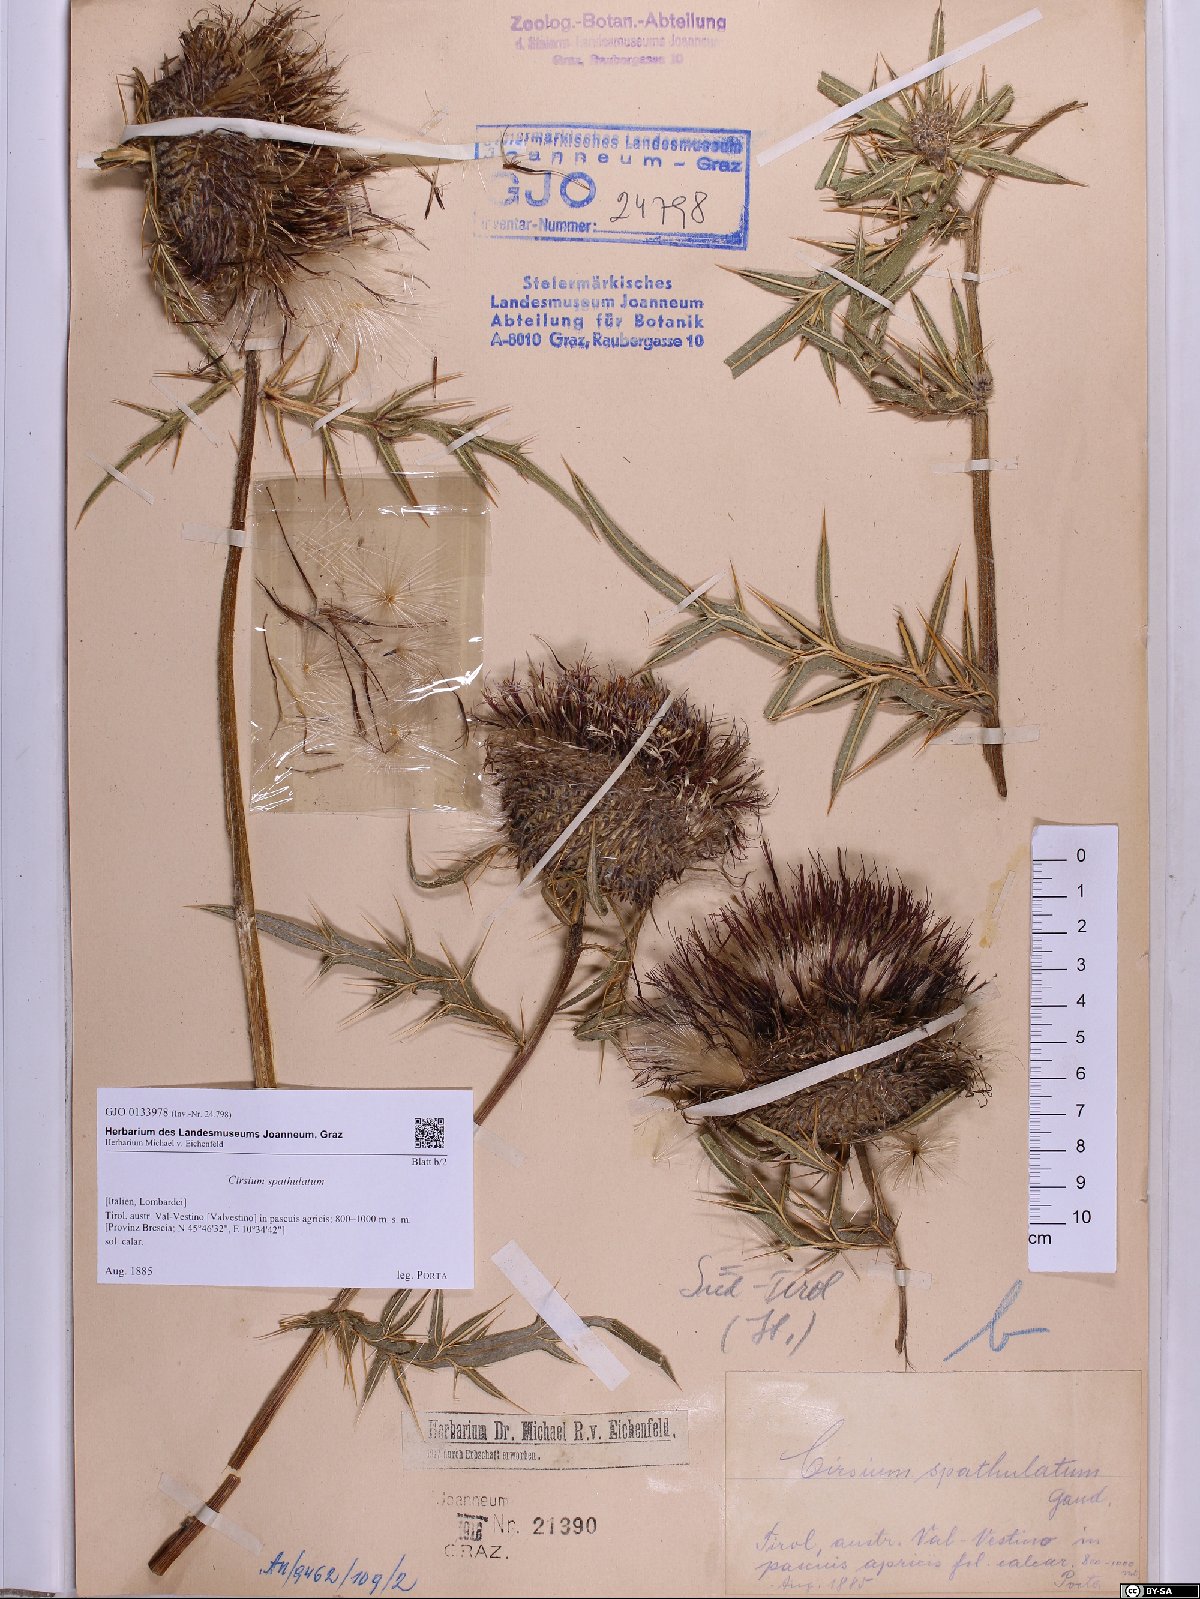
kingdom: Plantae
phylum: Tracheophyta
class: Magnoliopsida
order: Asterales
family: Asteraceae
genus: Lophiolepis
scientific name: Lophiolepis spathulata
